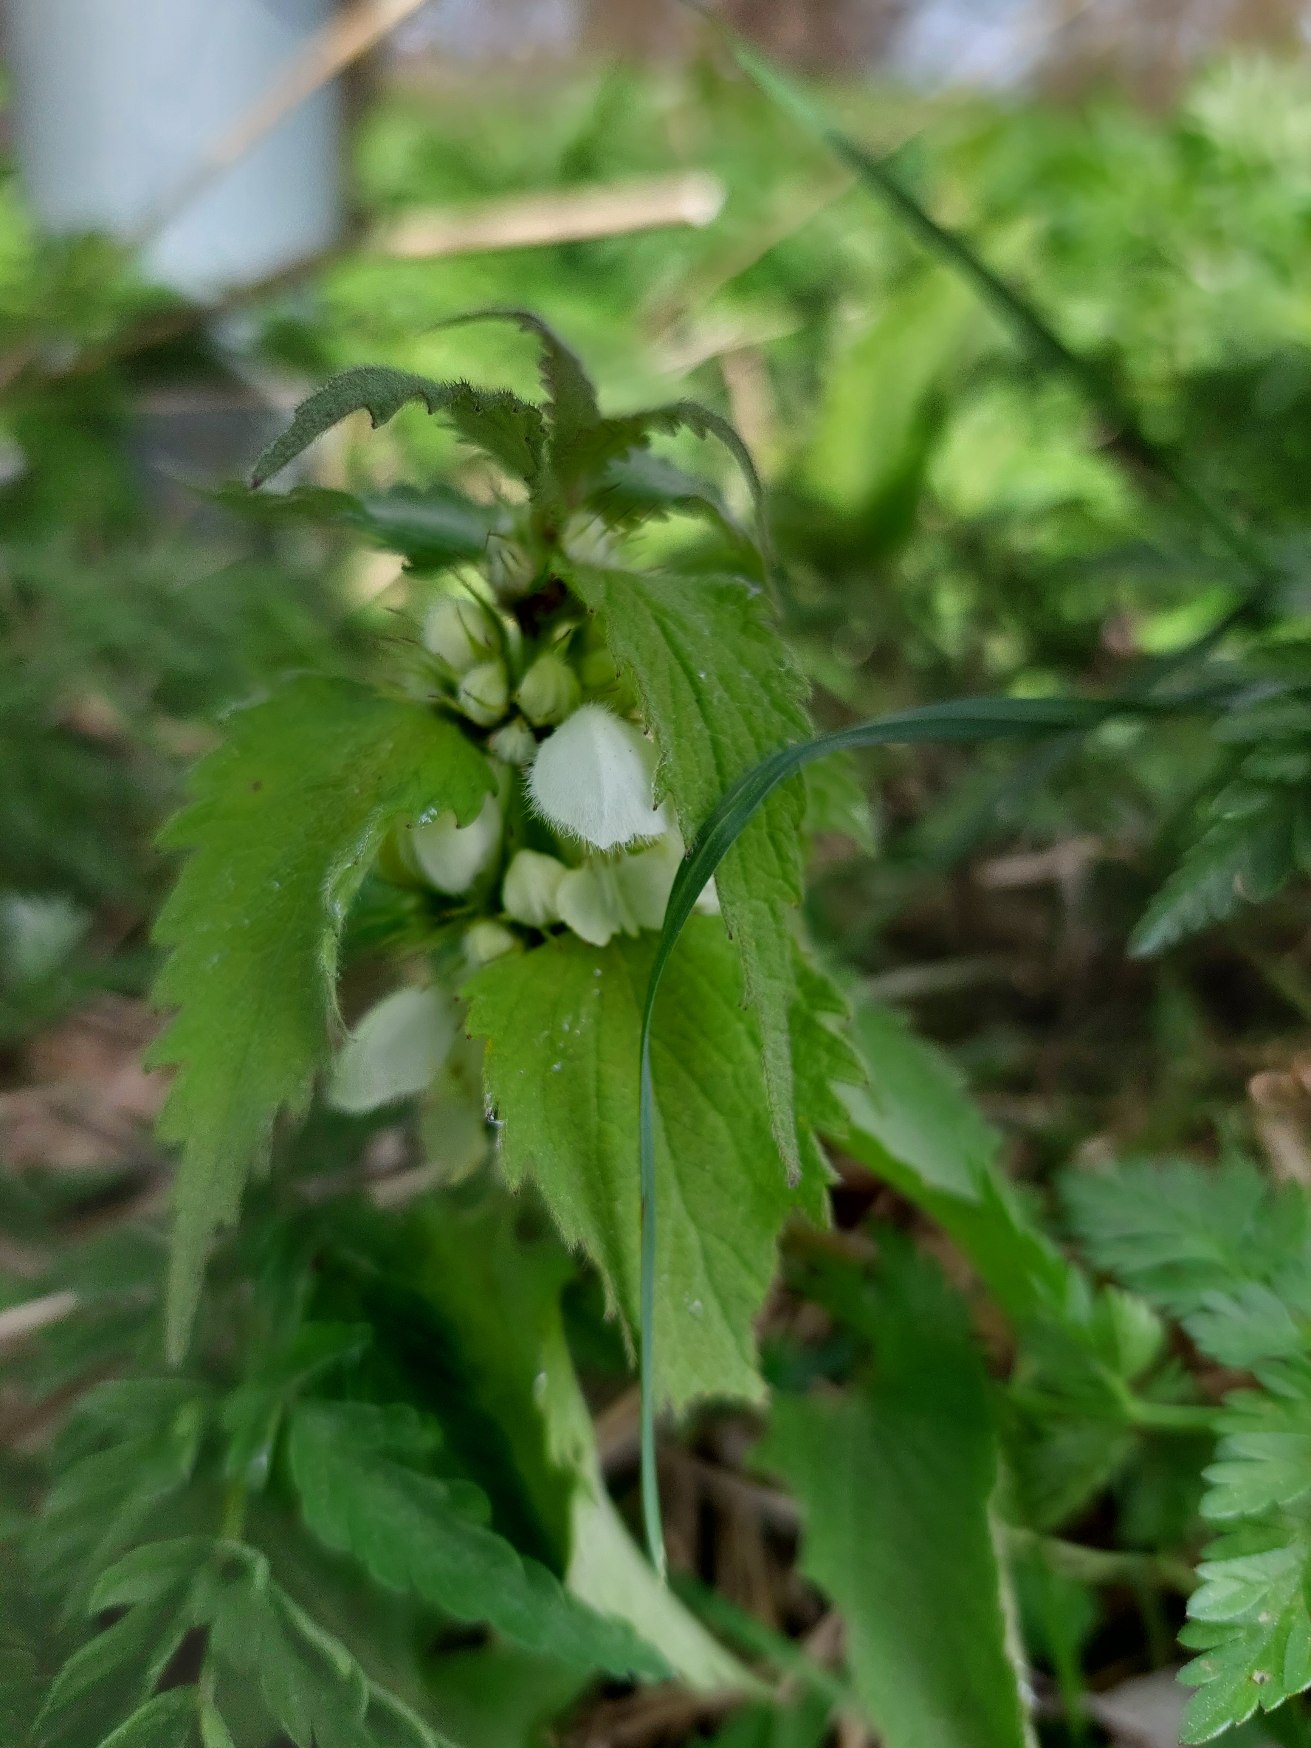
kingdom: Plantae
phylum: Tracheophyta
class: Magnoliopsida
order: Lamiales
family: Lamiaceae
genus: Lamium
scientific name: Lamium album
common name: Døvnælde
